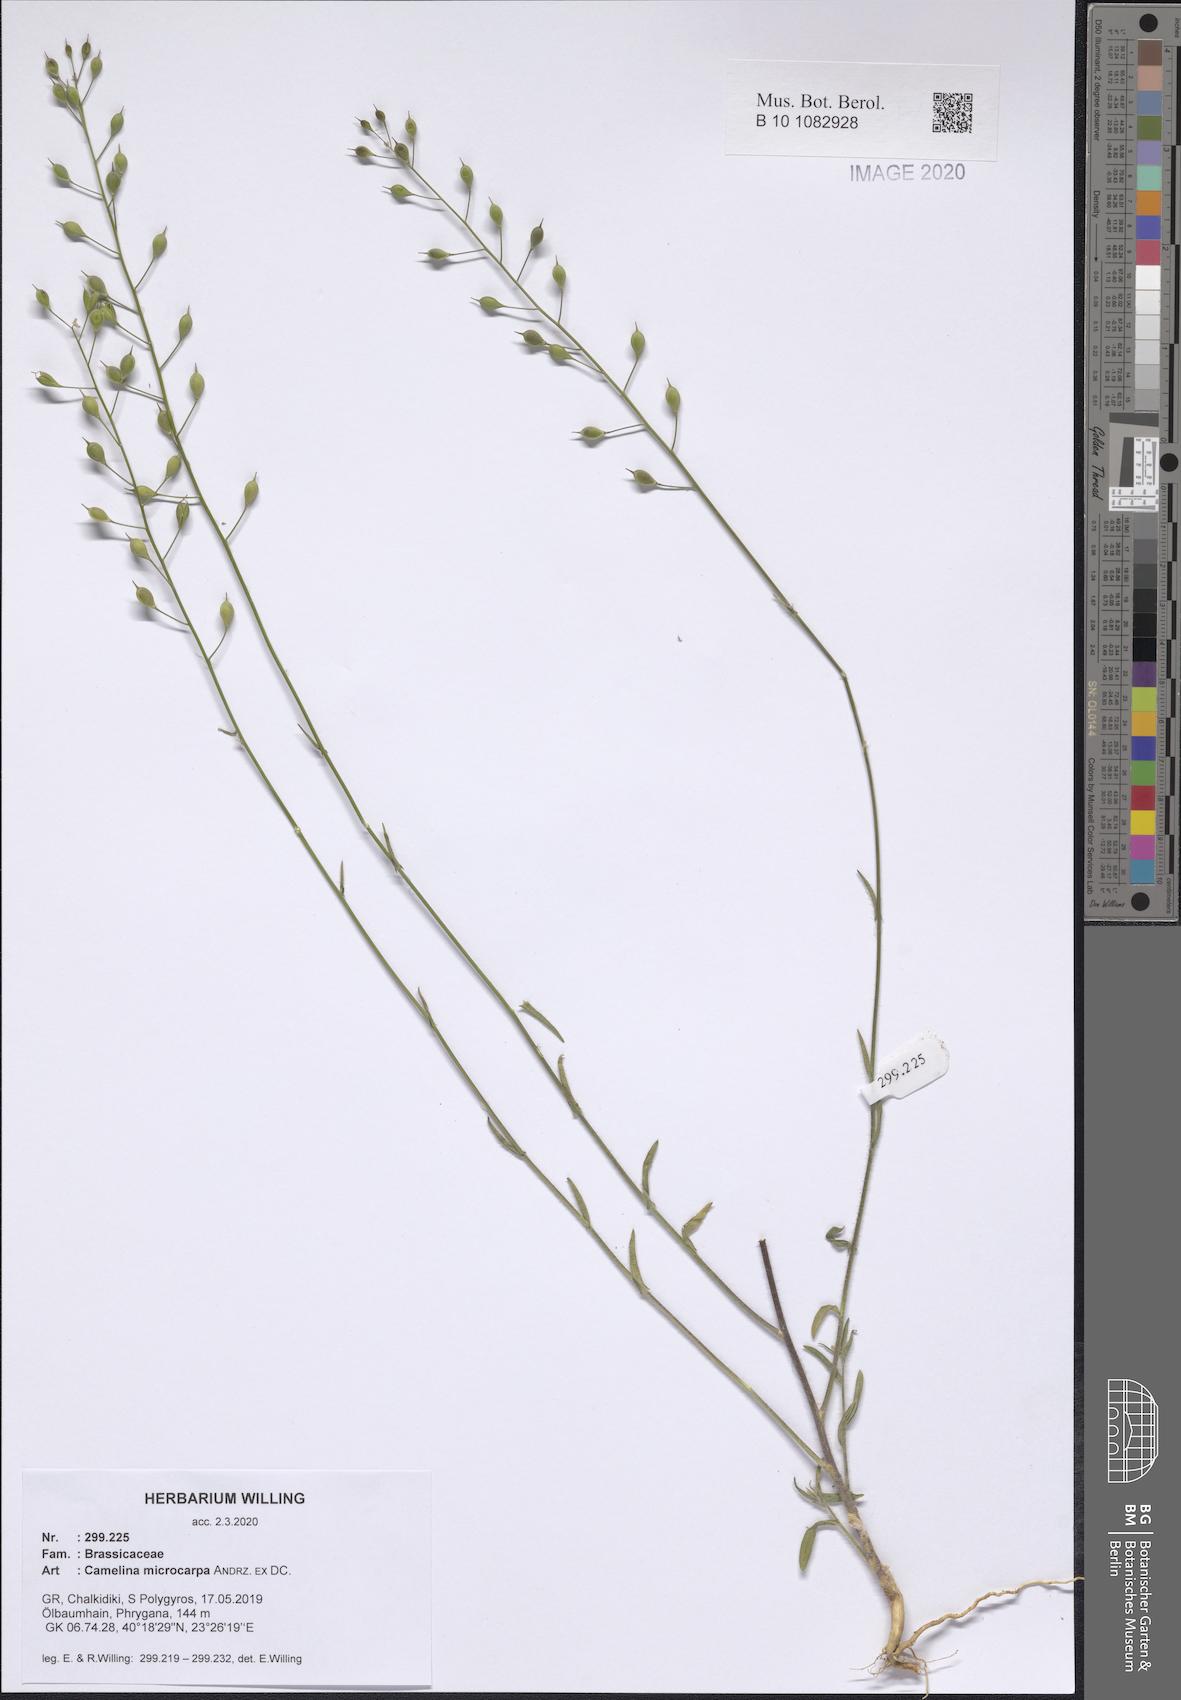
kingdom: Plantae
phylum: Tracheophyta
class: Magnoliopsida
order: Brassicales
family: Brassicaceae
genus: Camelina
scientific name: Camelina microcarpa
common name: Lesser gold-of-pleasure
